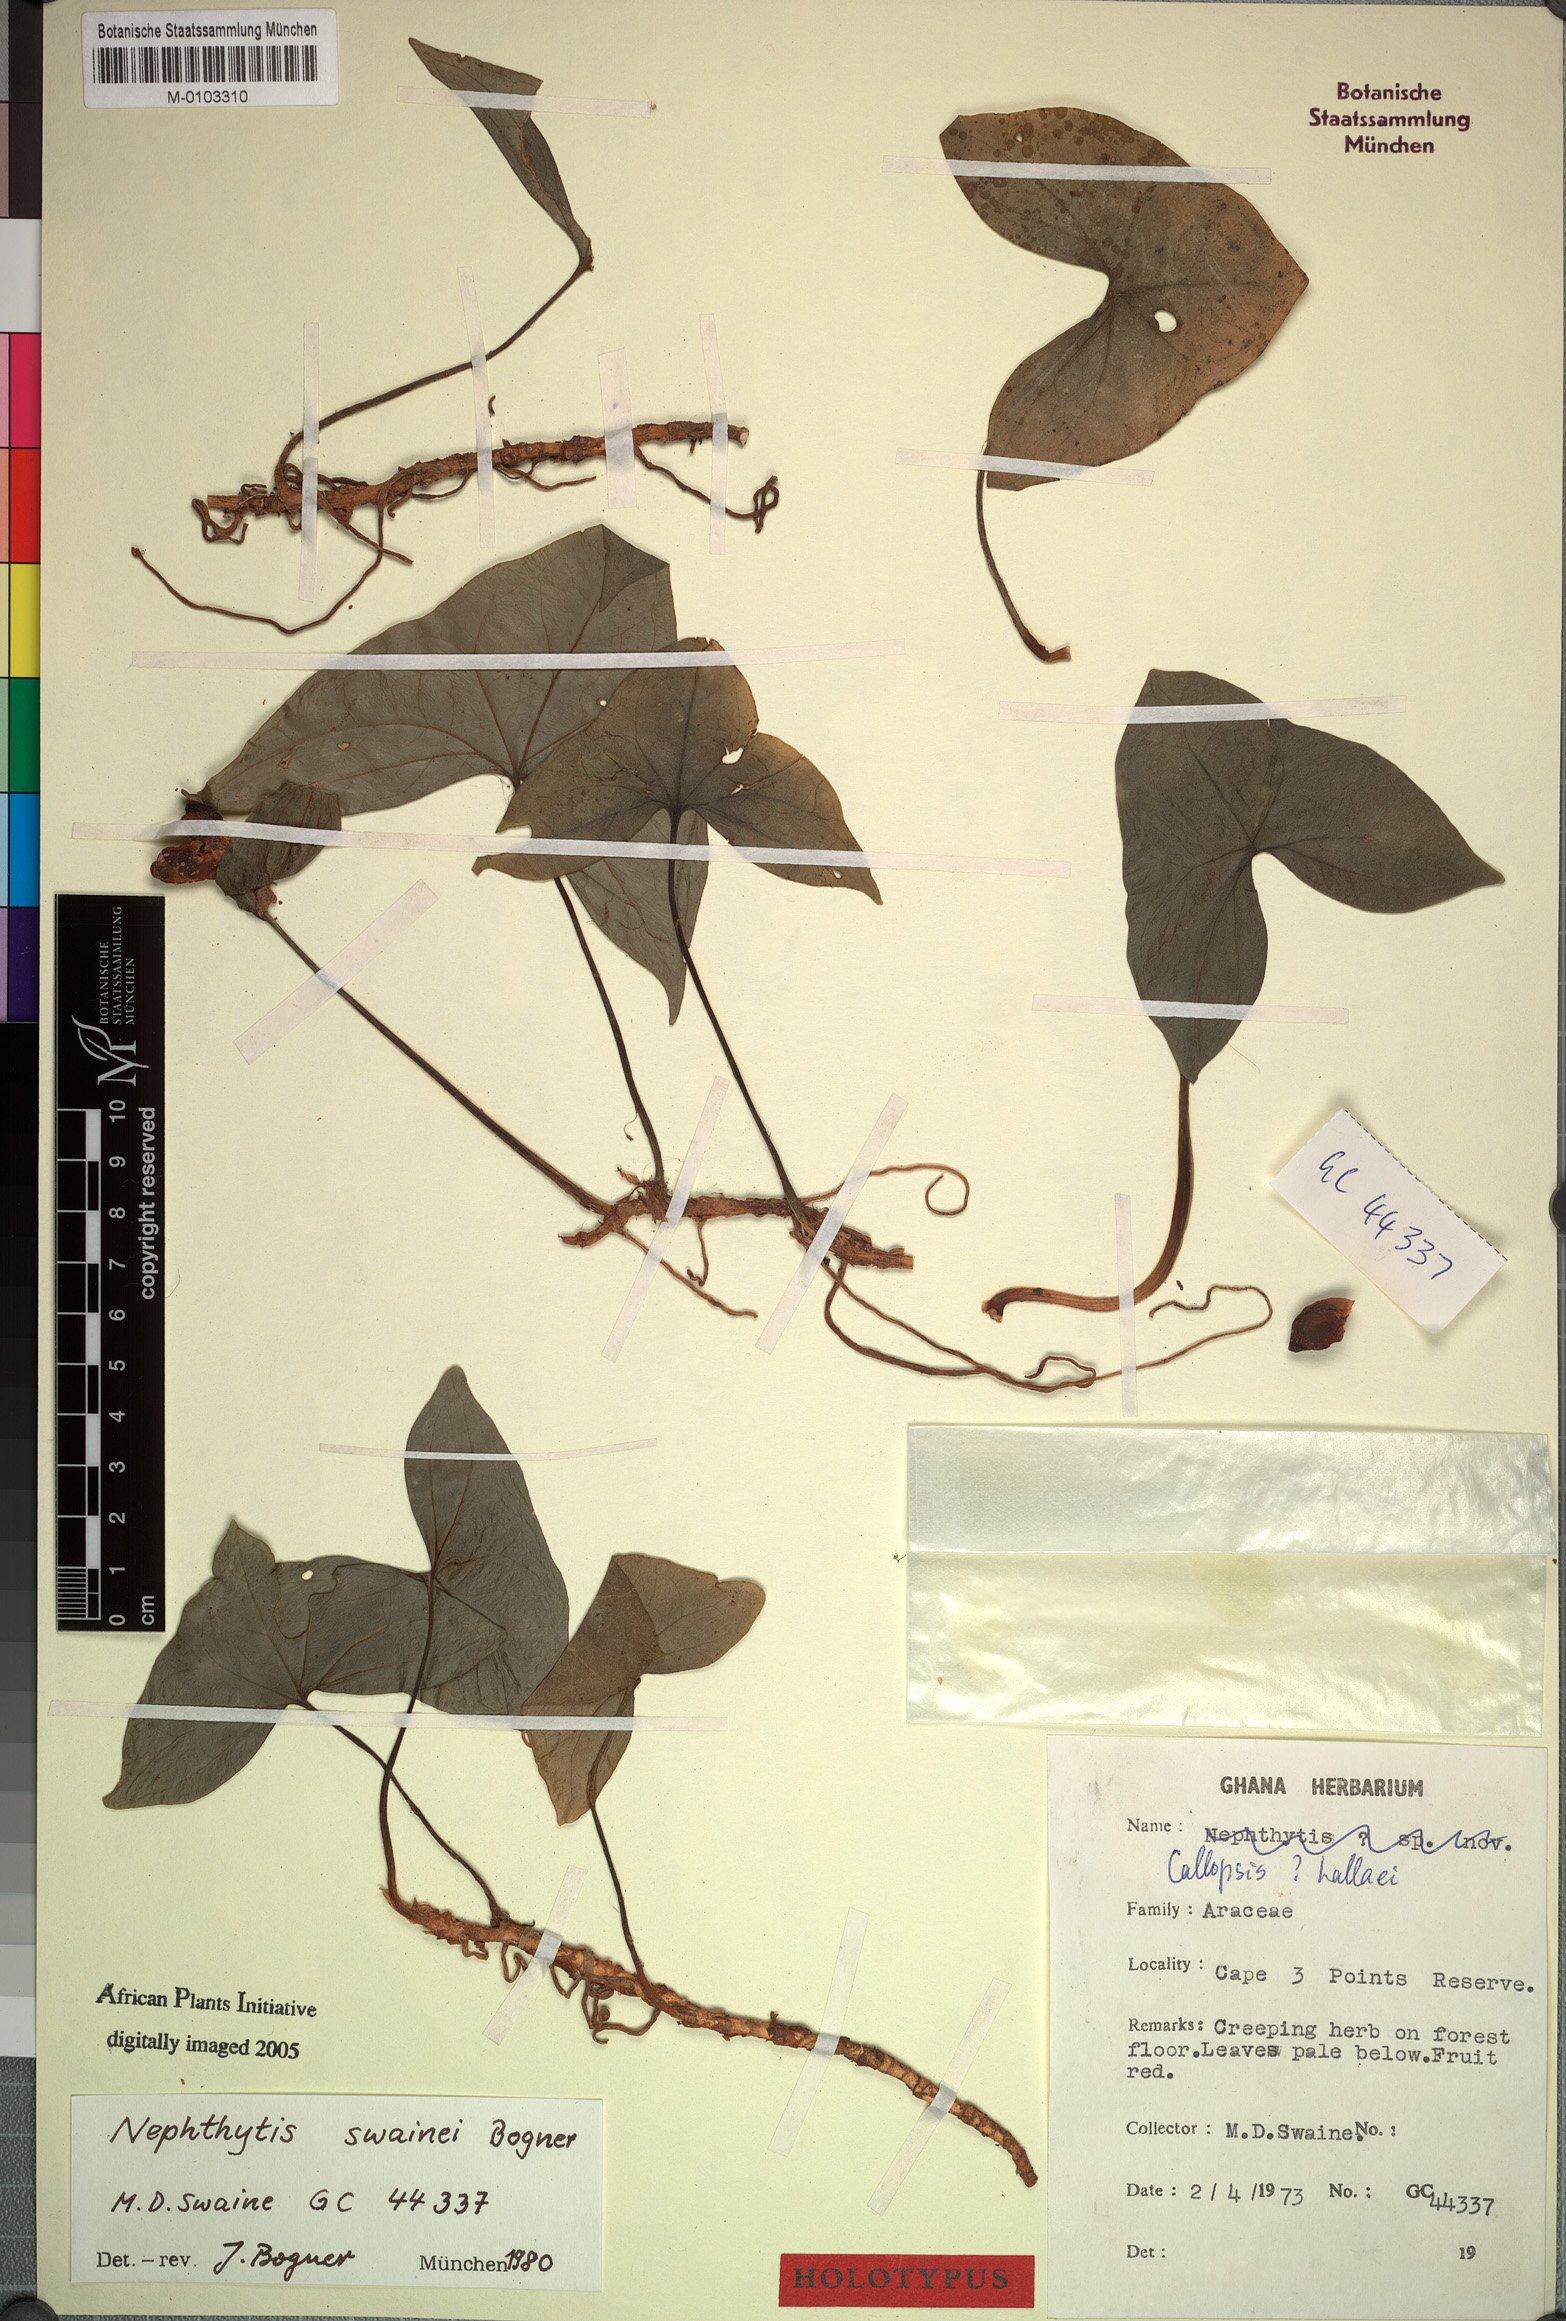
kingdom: Plantae
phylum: Tracheophyta
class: Liliopsida
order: Alismatales
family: Araceae
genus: Nephthytis
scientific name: Nephthytis swainei
